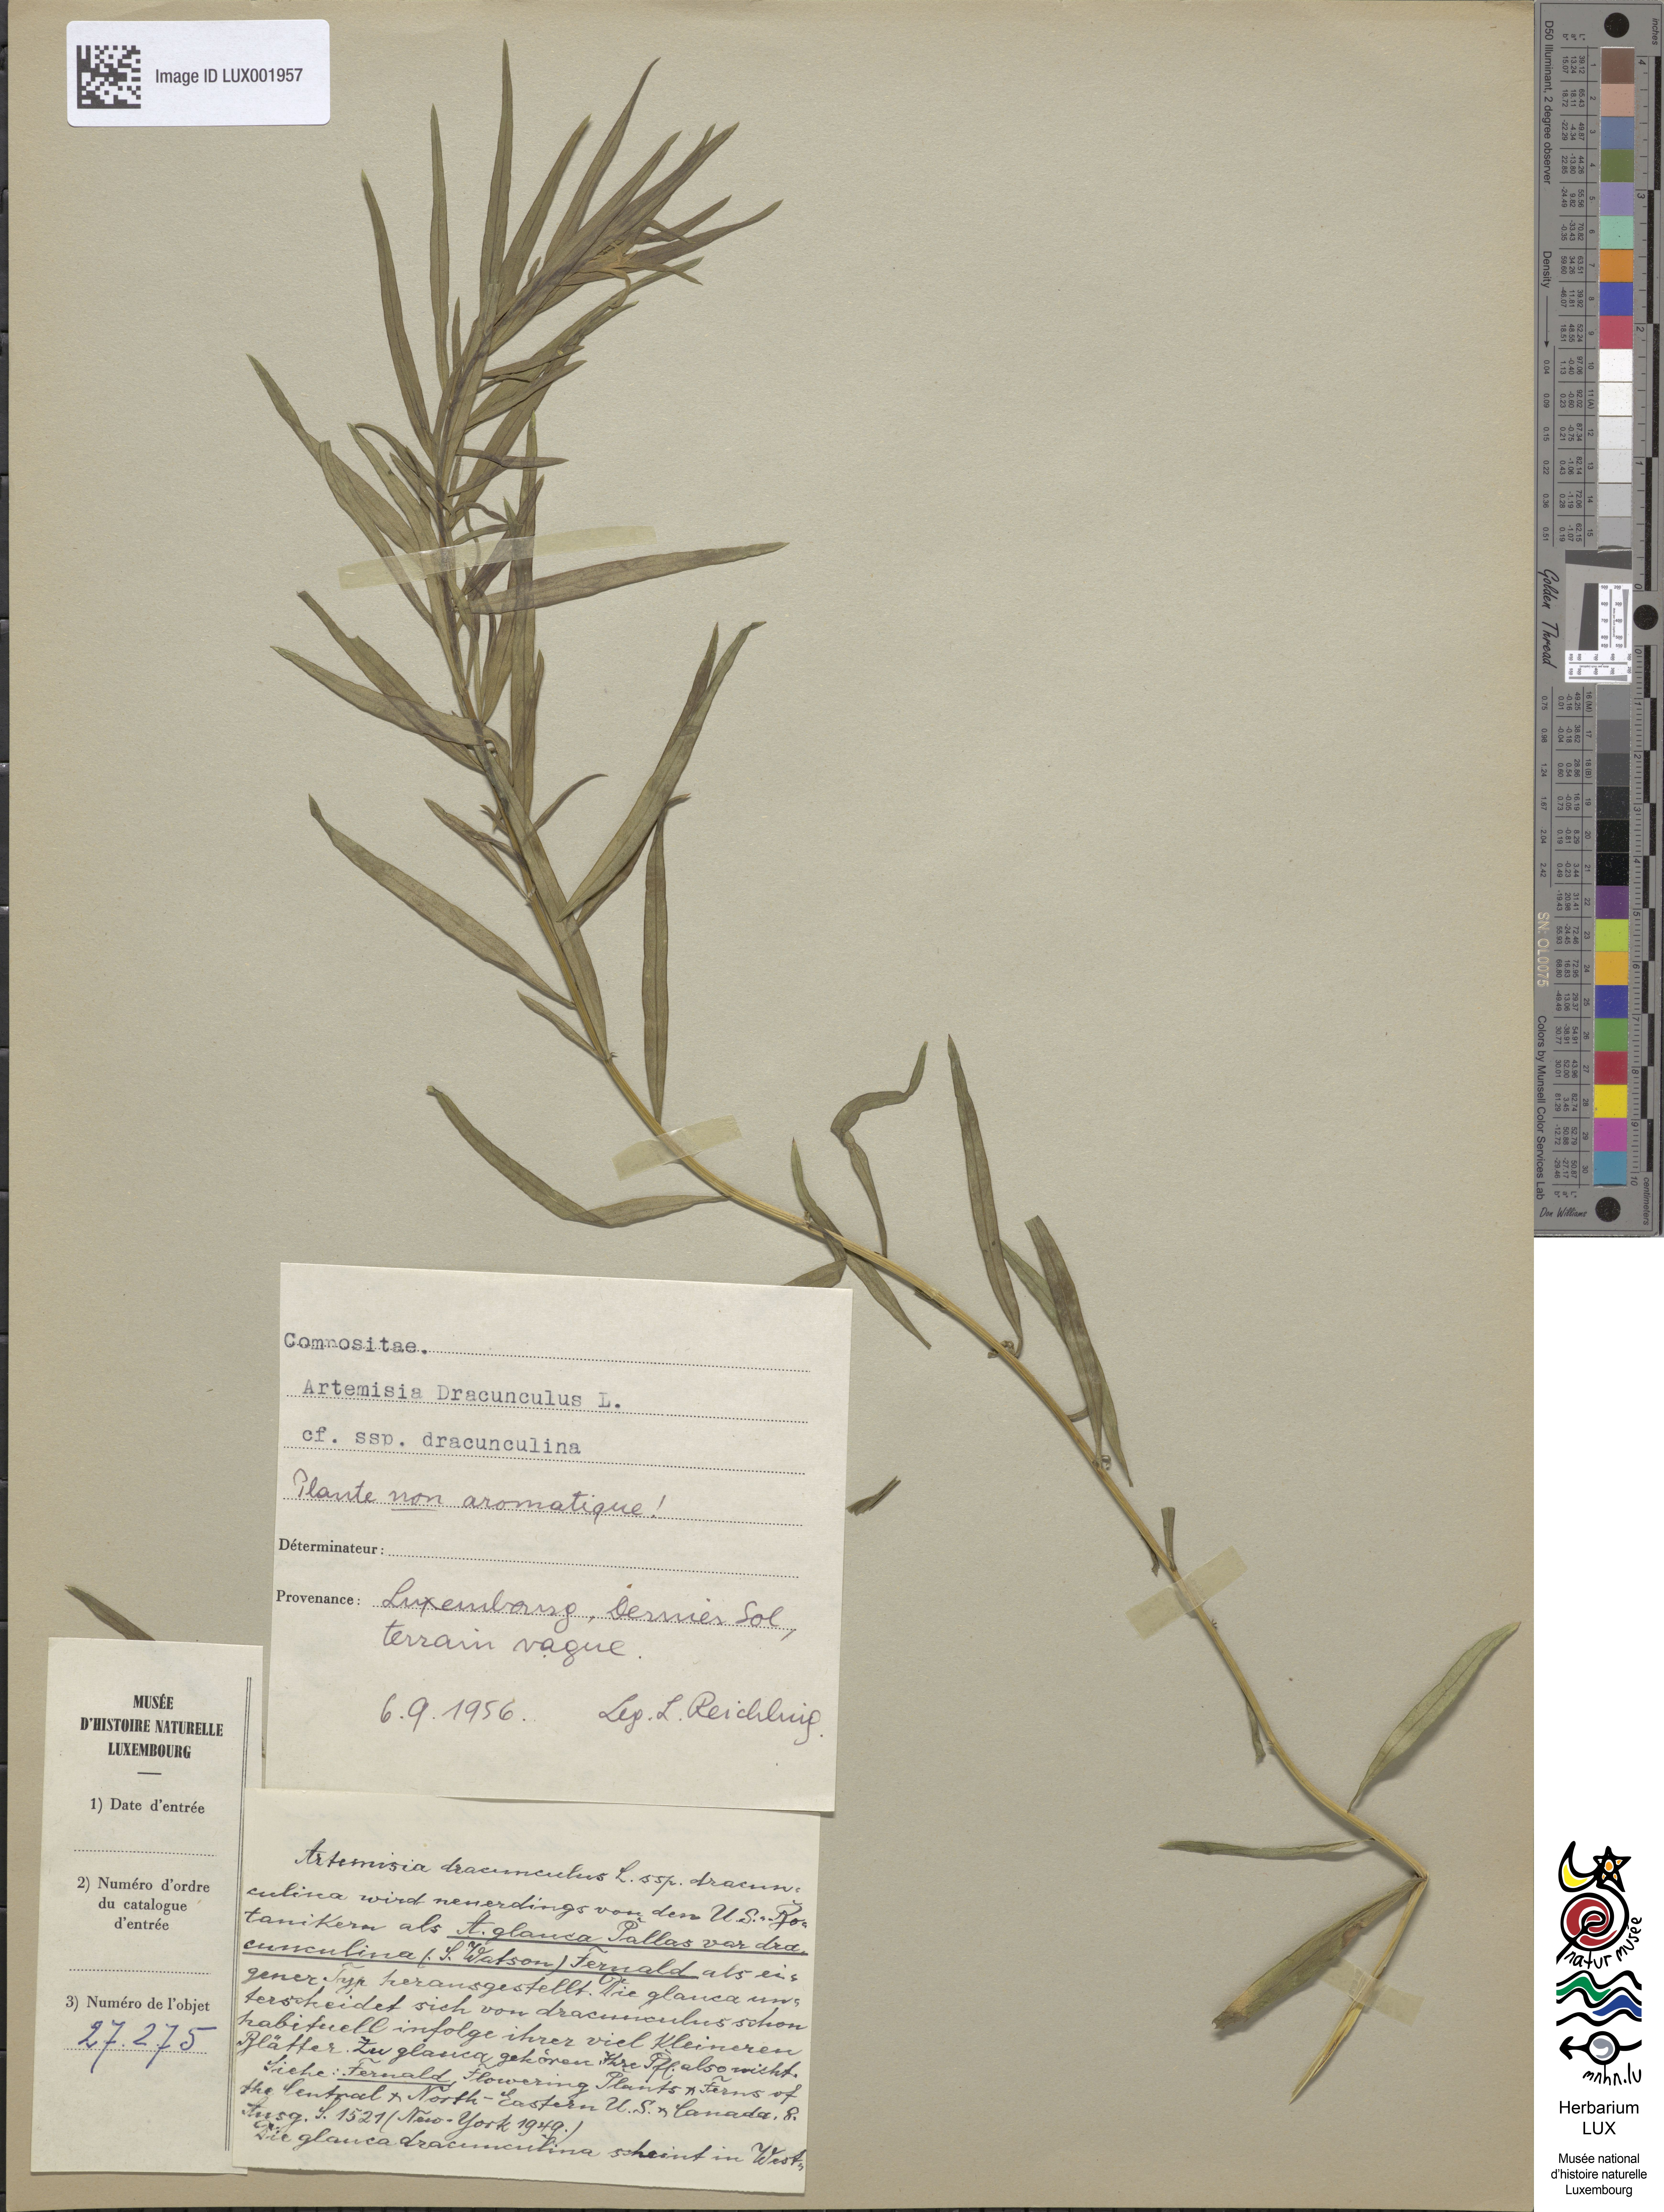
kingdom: Plantae
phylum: Tracheophyta
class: Magnoliopsida
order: Asterales
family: Asteraceae
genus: Artemisia
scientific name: Artemisia dracunculus
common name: Tarragon
